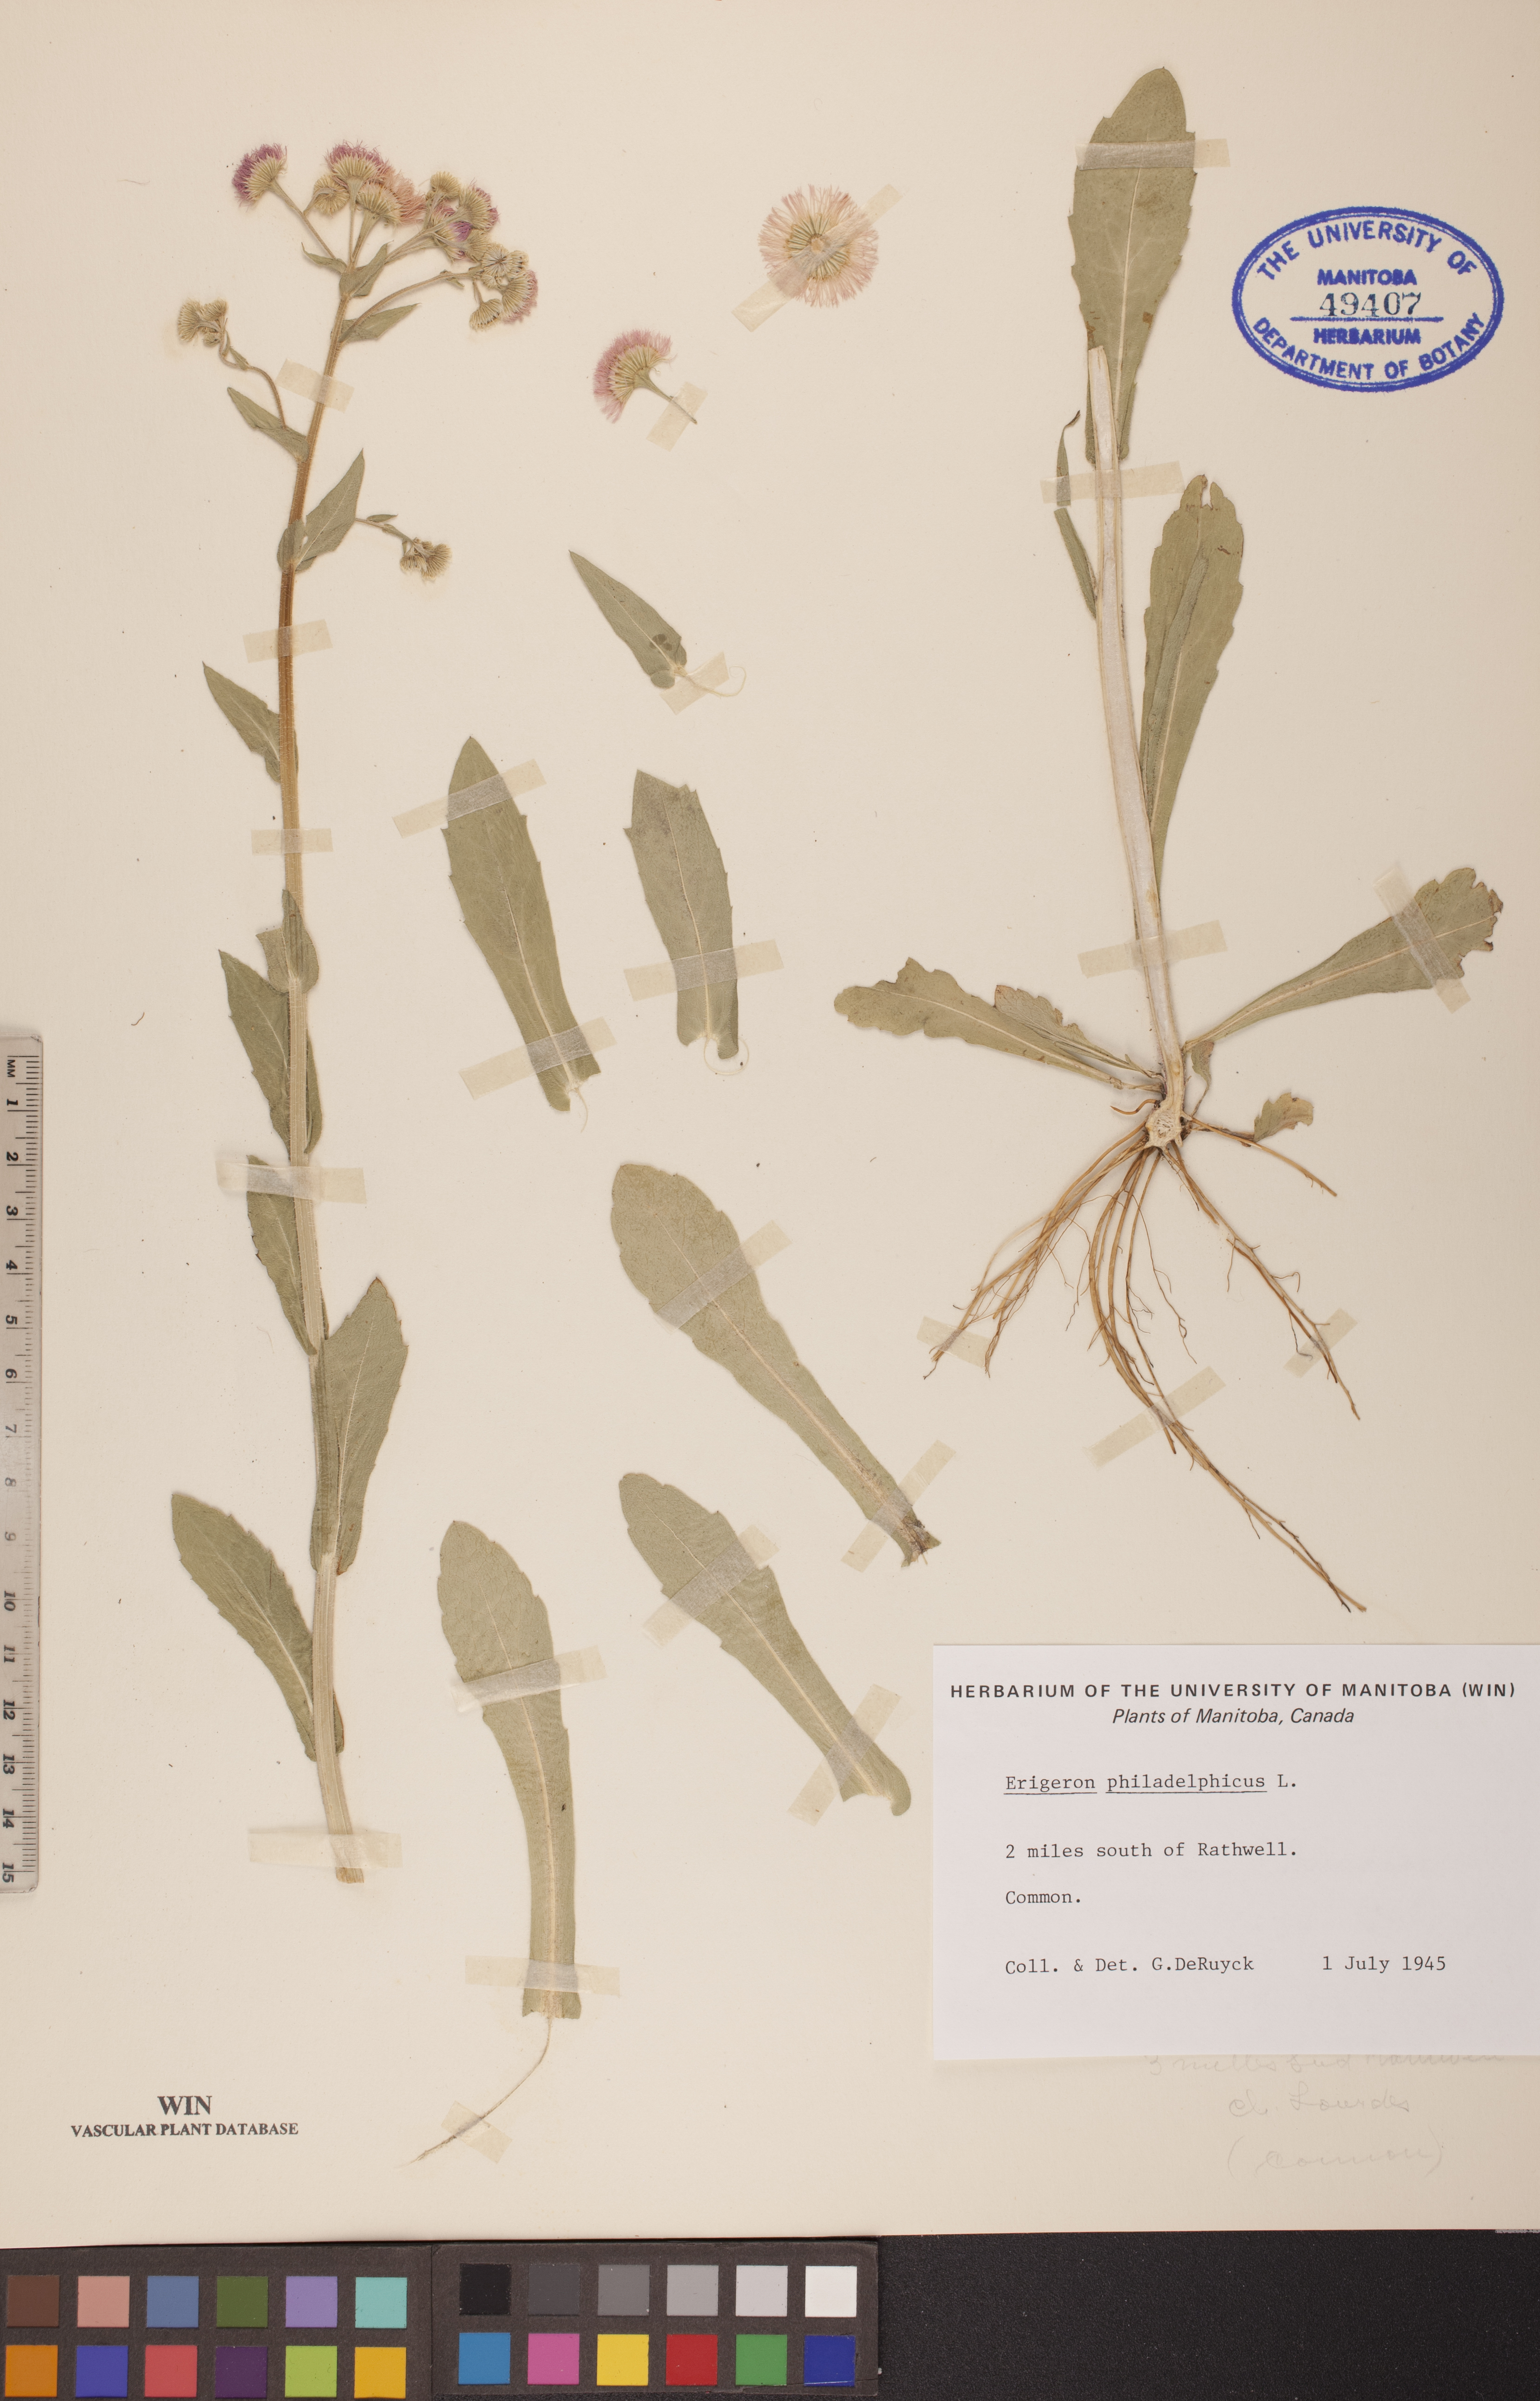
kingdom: Plantae
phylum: Tracheophyta
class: Magnoliopsida
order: Asterales
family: Asteraceae
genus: Erigeron
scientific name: Erigeron philadelphicus
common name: Robin's-plantain
